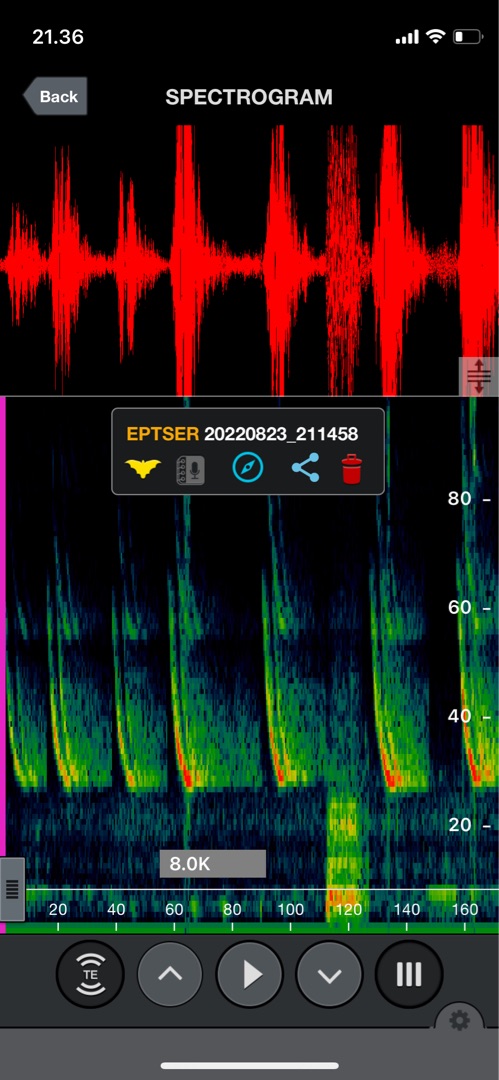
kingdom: Animalia
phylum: Chordata
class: Mammalia
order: Chiroptera
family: Vespertilionidae
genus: Eptesicus
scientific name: Eptesicus serotinus
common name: Sydflagermus
